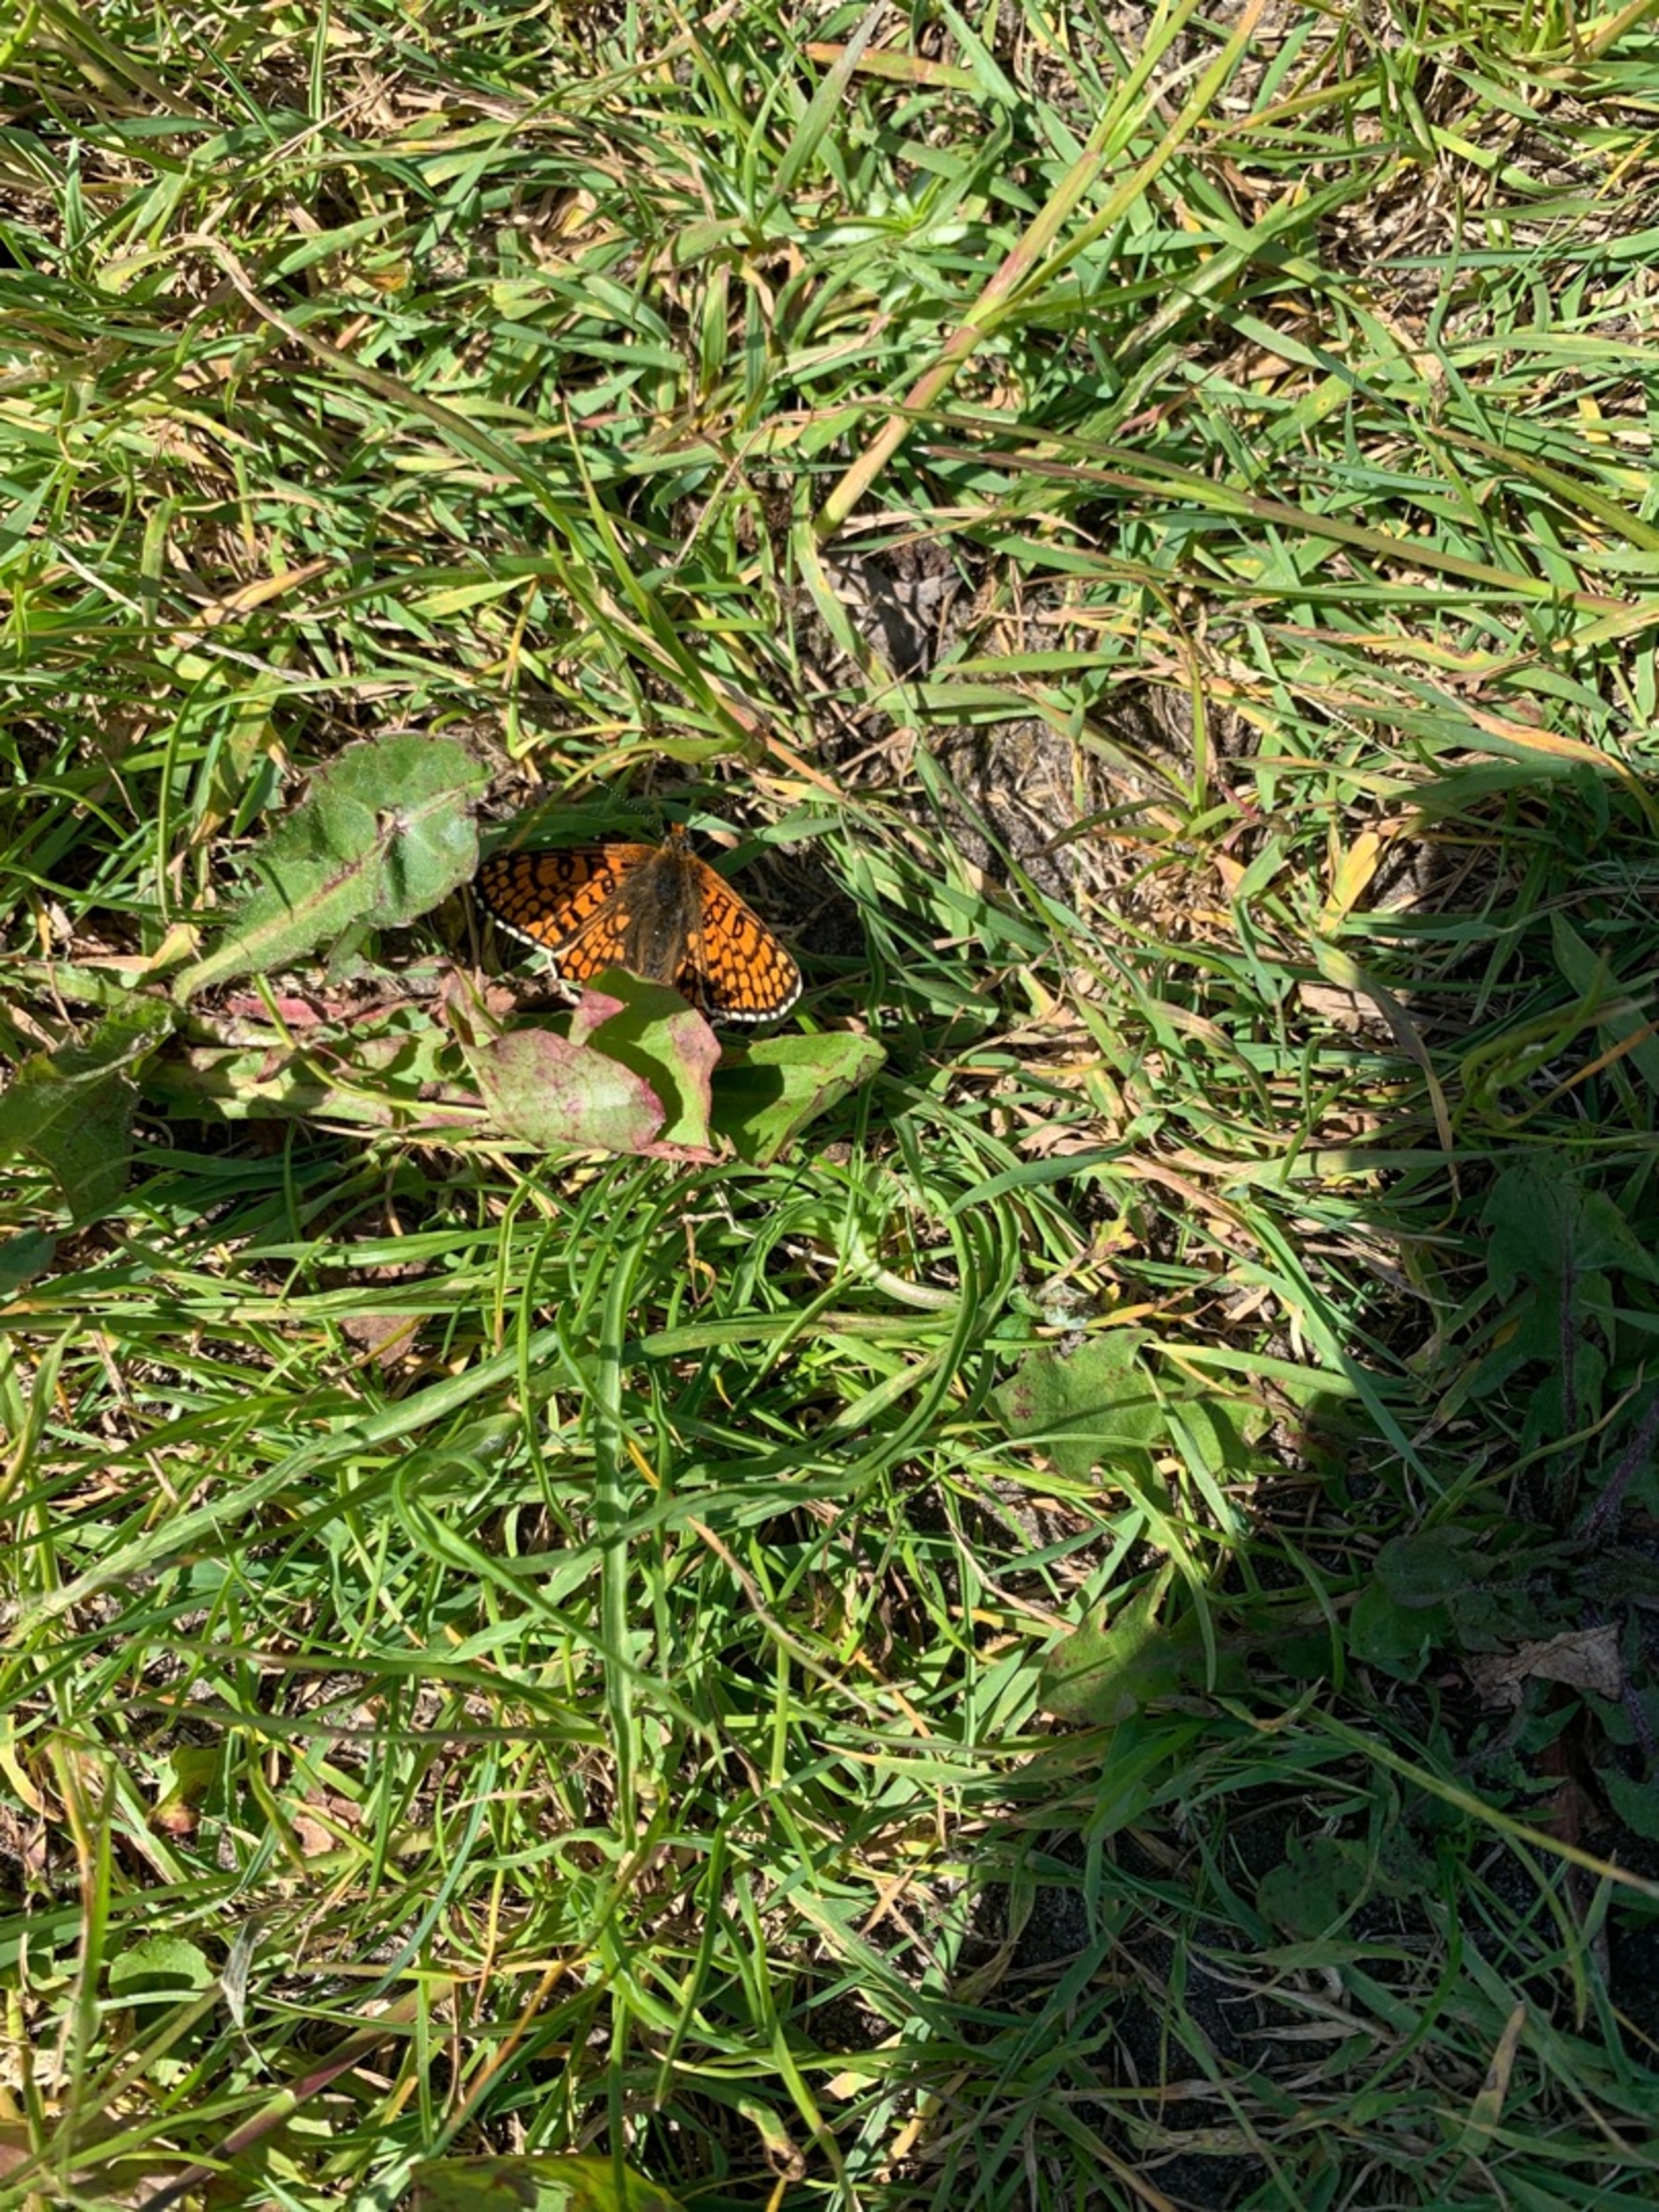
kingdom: Animalia
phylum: Arthropoda
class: Insecta
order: Lepidoptera
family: Nymphalidae
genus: Melitaea
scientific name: Melitaea cinxia
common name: Okkergul pletvinge
